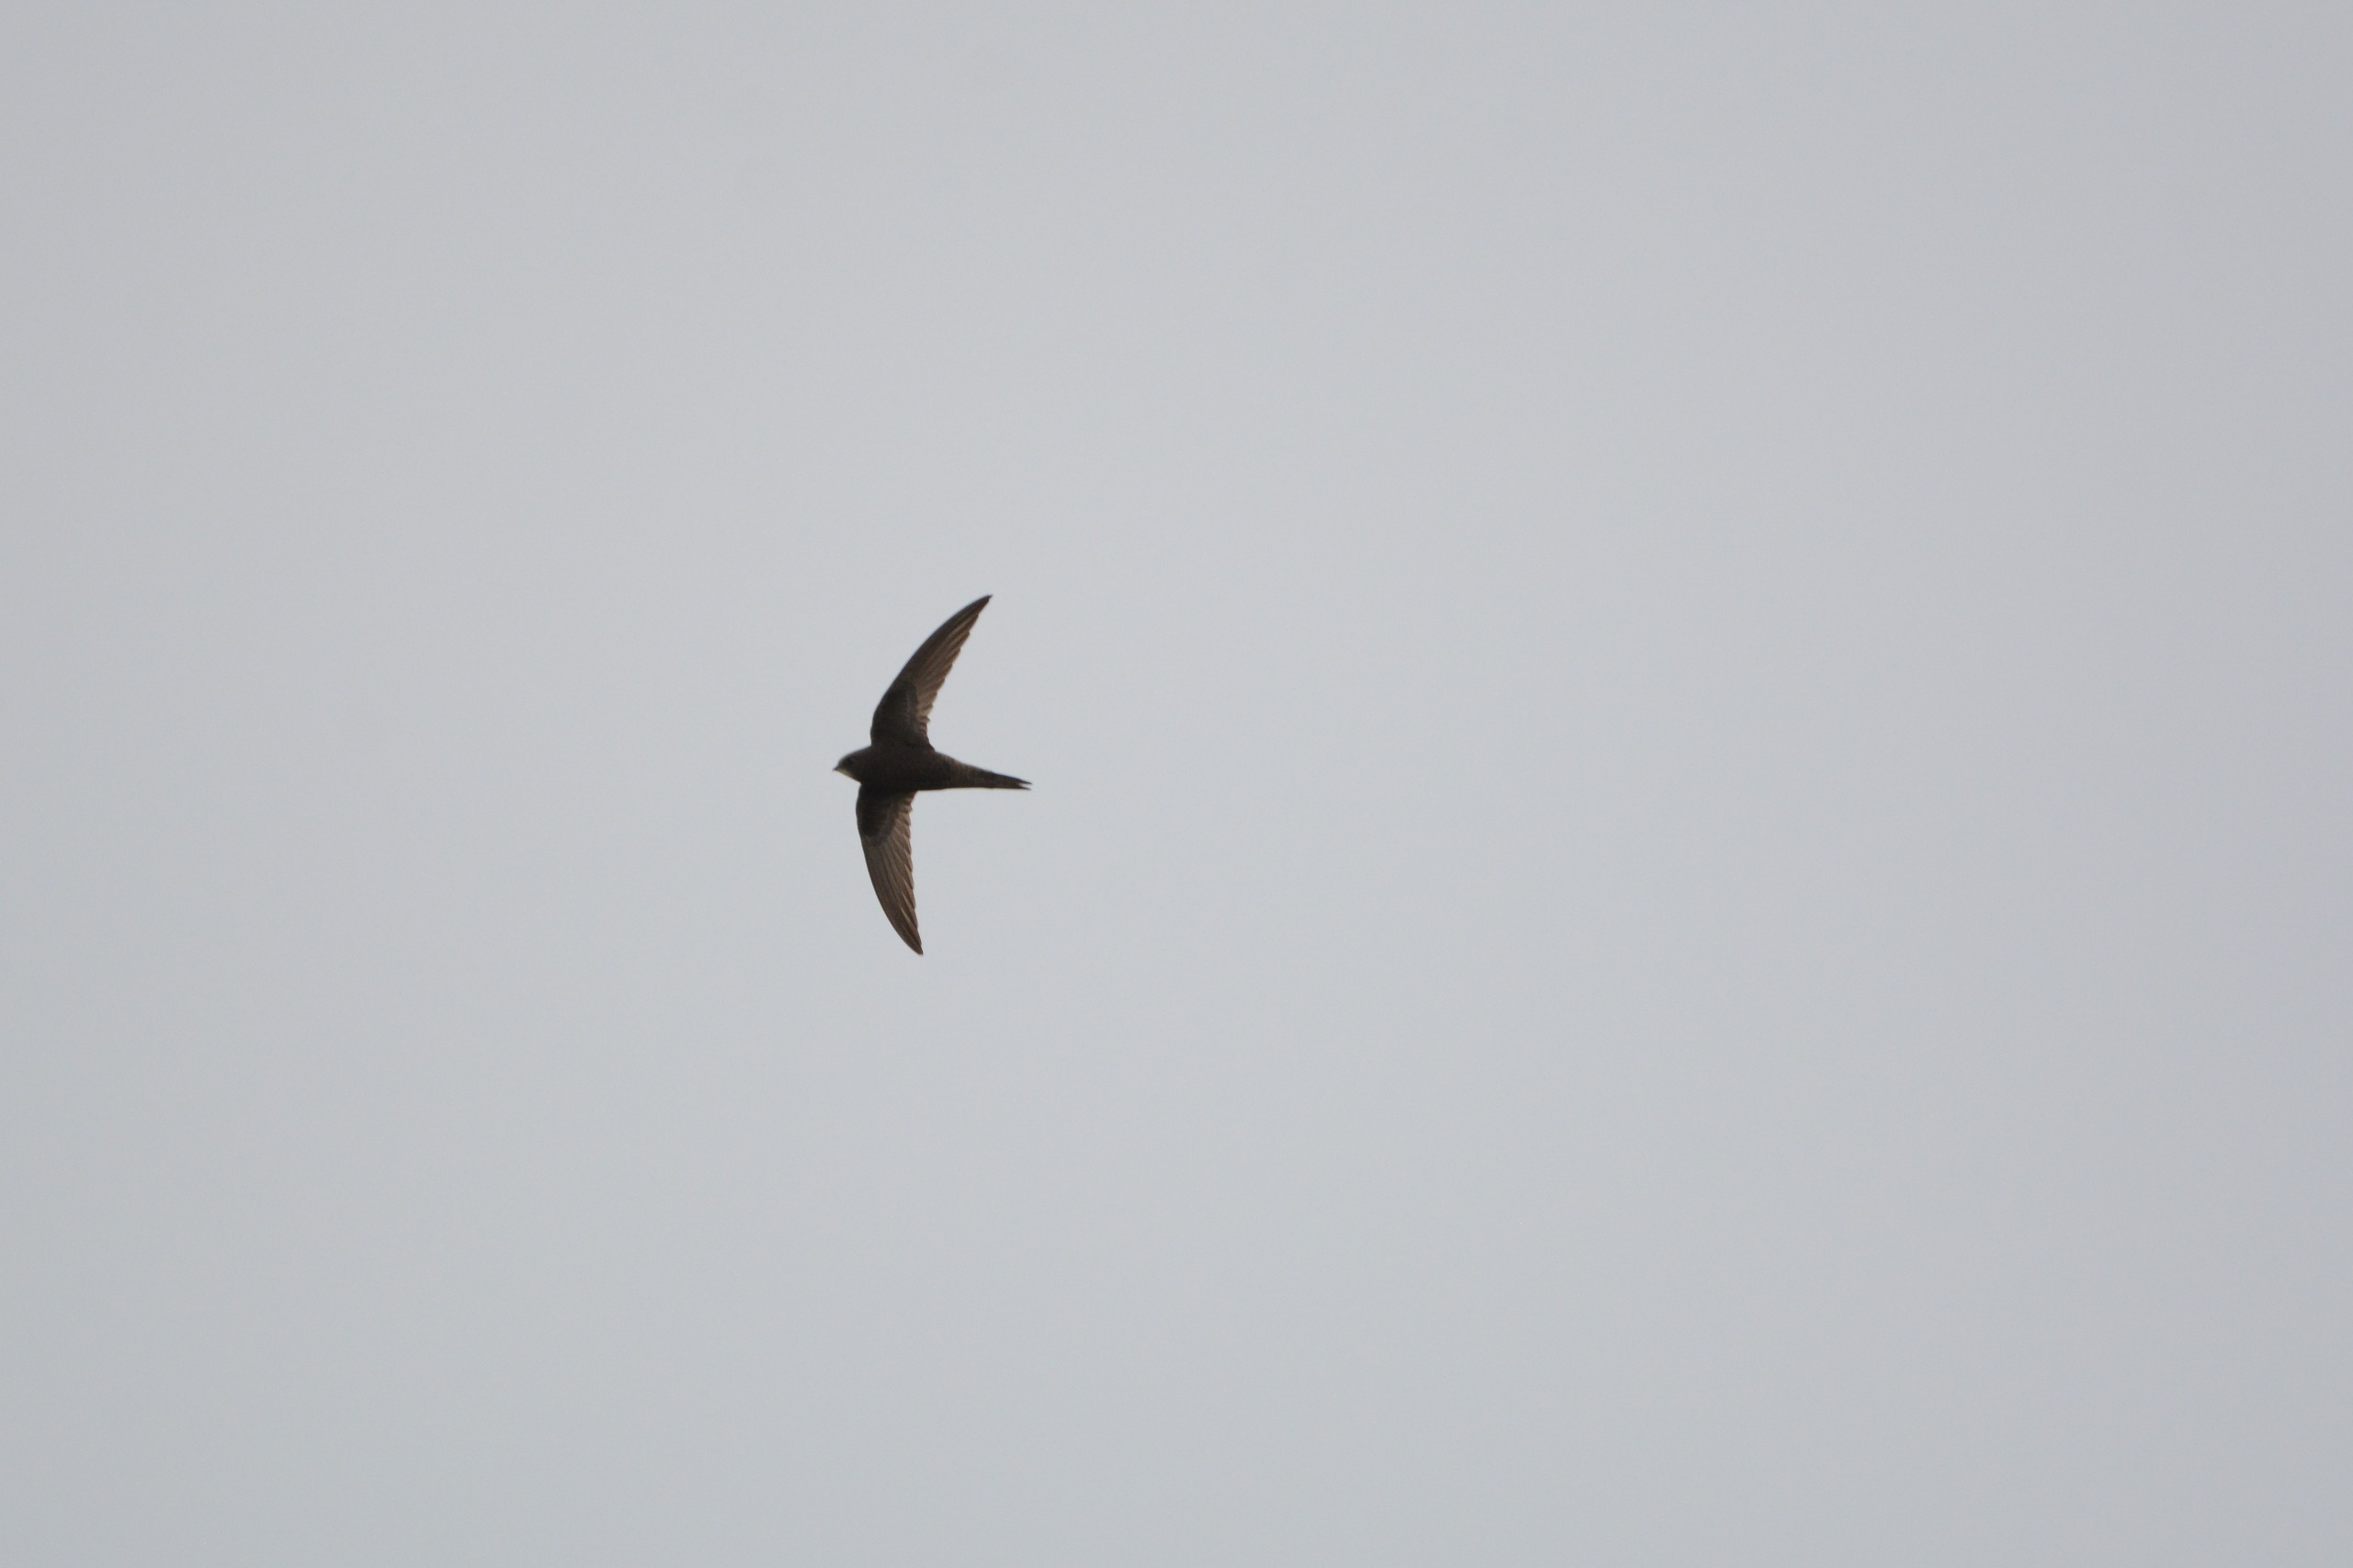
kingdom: Animalia
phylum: Chordata
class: Aves
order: Apodiformes
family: Apodidae
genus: Apus
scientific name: Apus apus
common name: Mursejler
